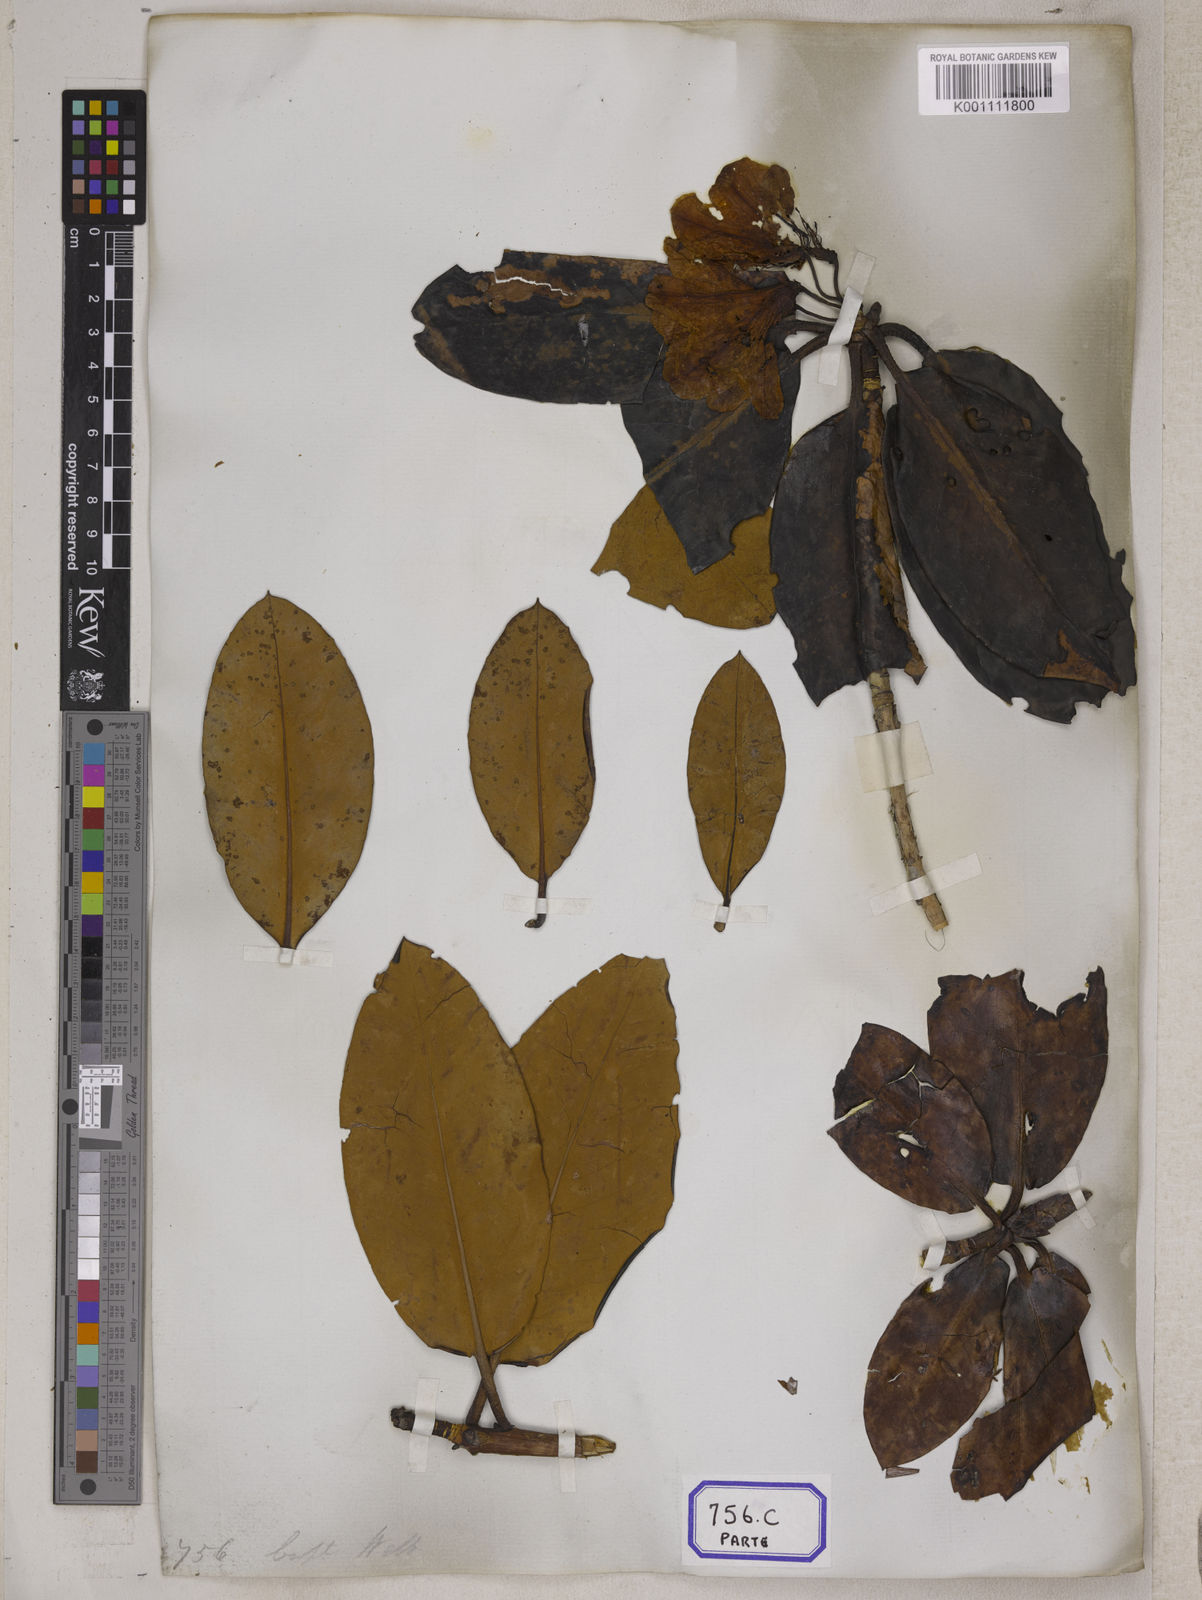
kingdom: Plantae
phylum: Tracheophyta
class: Magnoliopsida
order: Ericales
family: Ericaceae
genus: Rhododendron
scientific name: Rhododendron campanulatum
